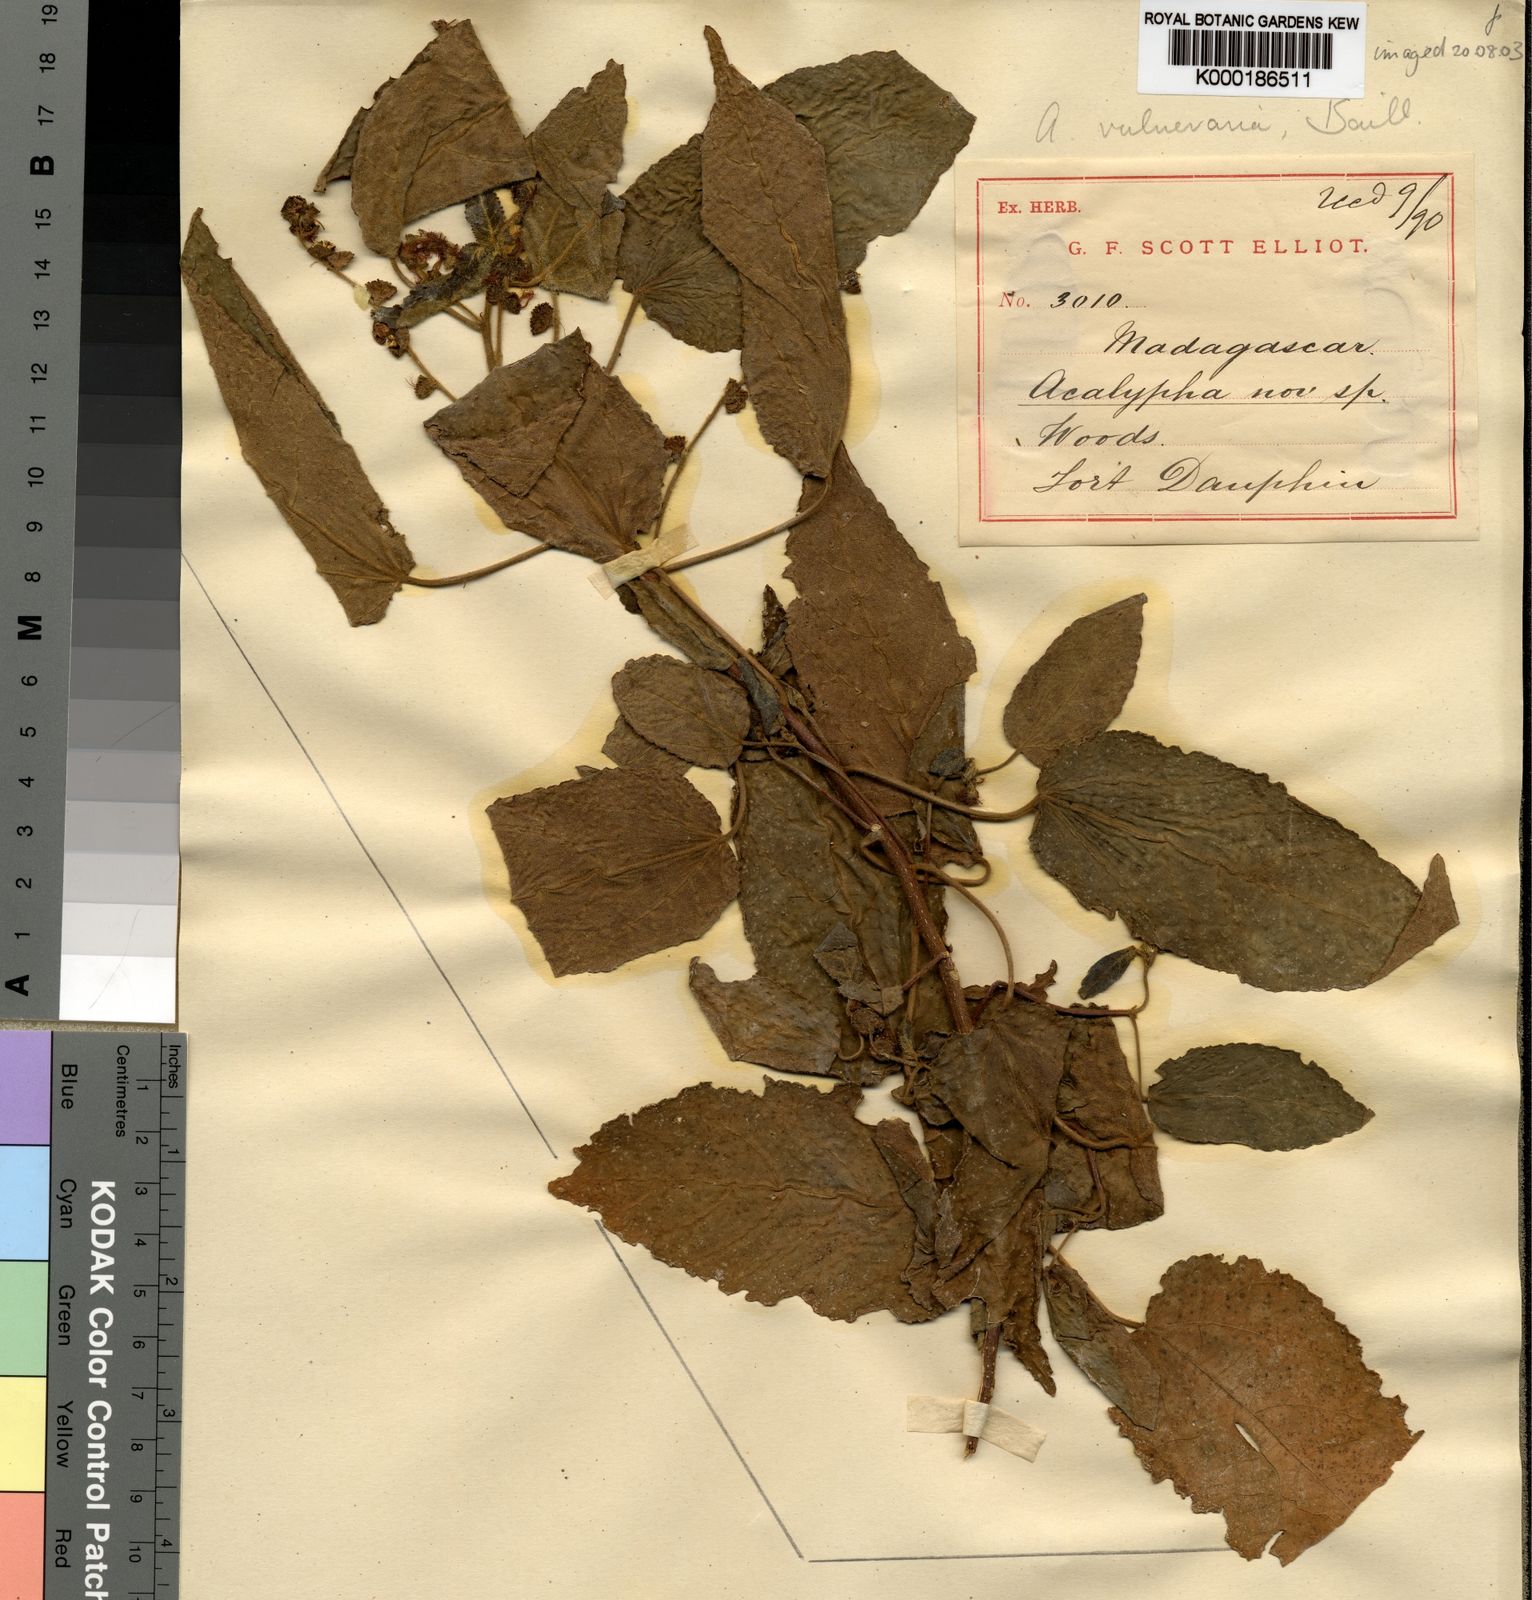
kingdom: Plantae
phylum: Tracheophyta
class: Magnoliopsida
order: Malpighiales
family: Euphorbiaceae
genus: Acalypha
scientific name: Acalypha vulneraria
